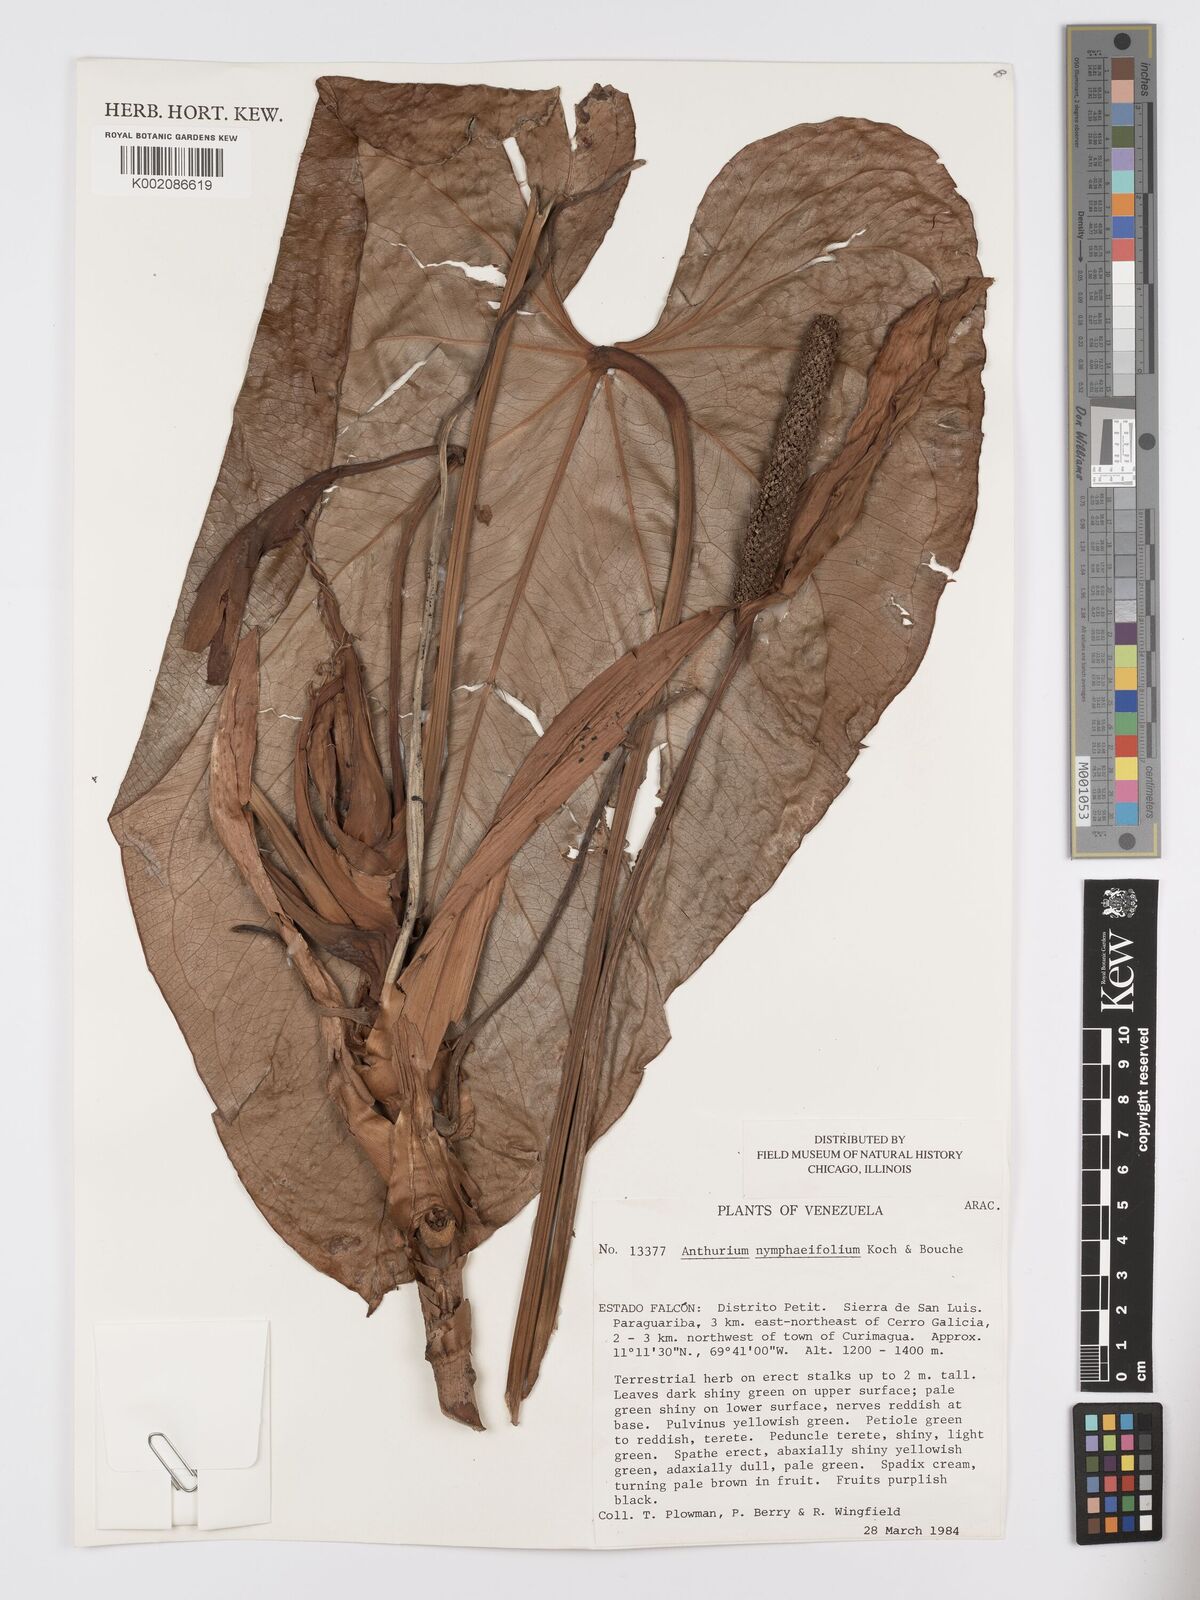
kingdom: Plantae
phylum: Tracheophyta
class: Liliopsida
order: Alismatales
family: Araceae
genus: Anthurium
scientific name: Anthurium nymphaeifolium
